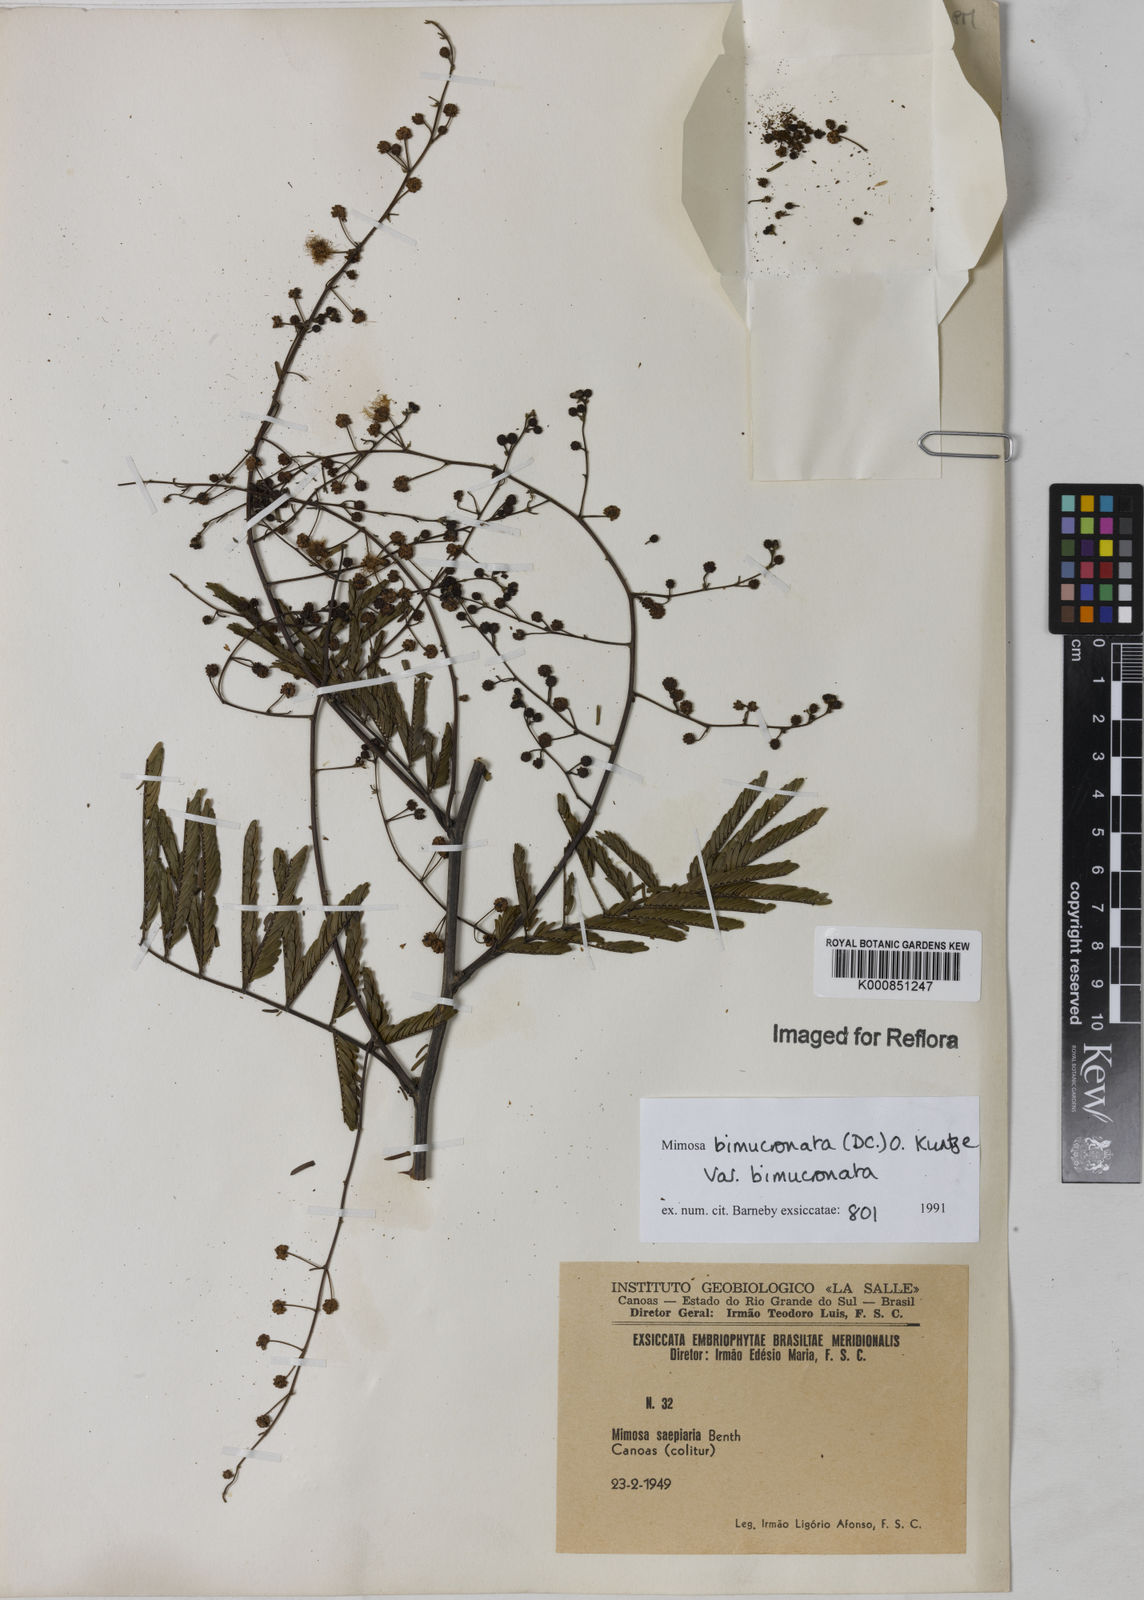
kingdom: Plantae
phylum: Tracheophyta
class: Magnoliopsida
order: Fabales
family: Fabaceae
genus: Mimosa
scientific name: Mimosa bimucronata
